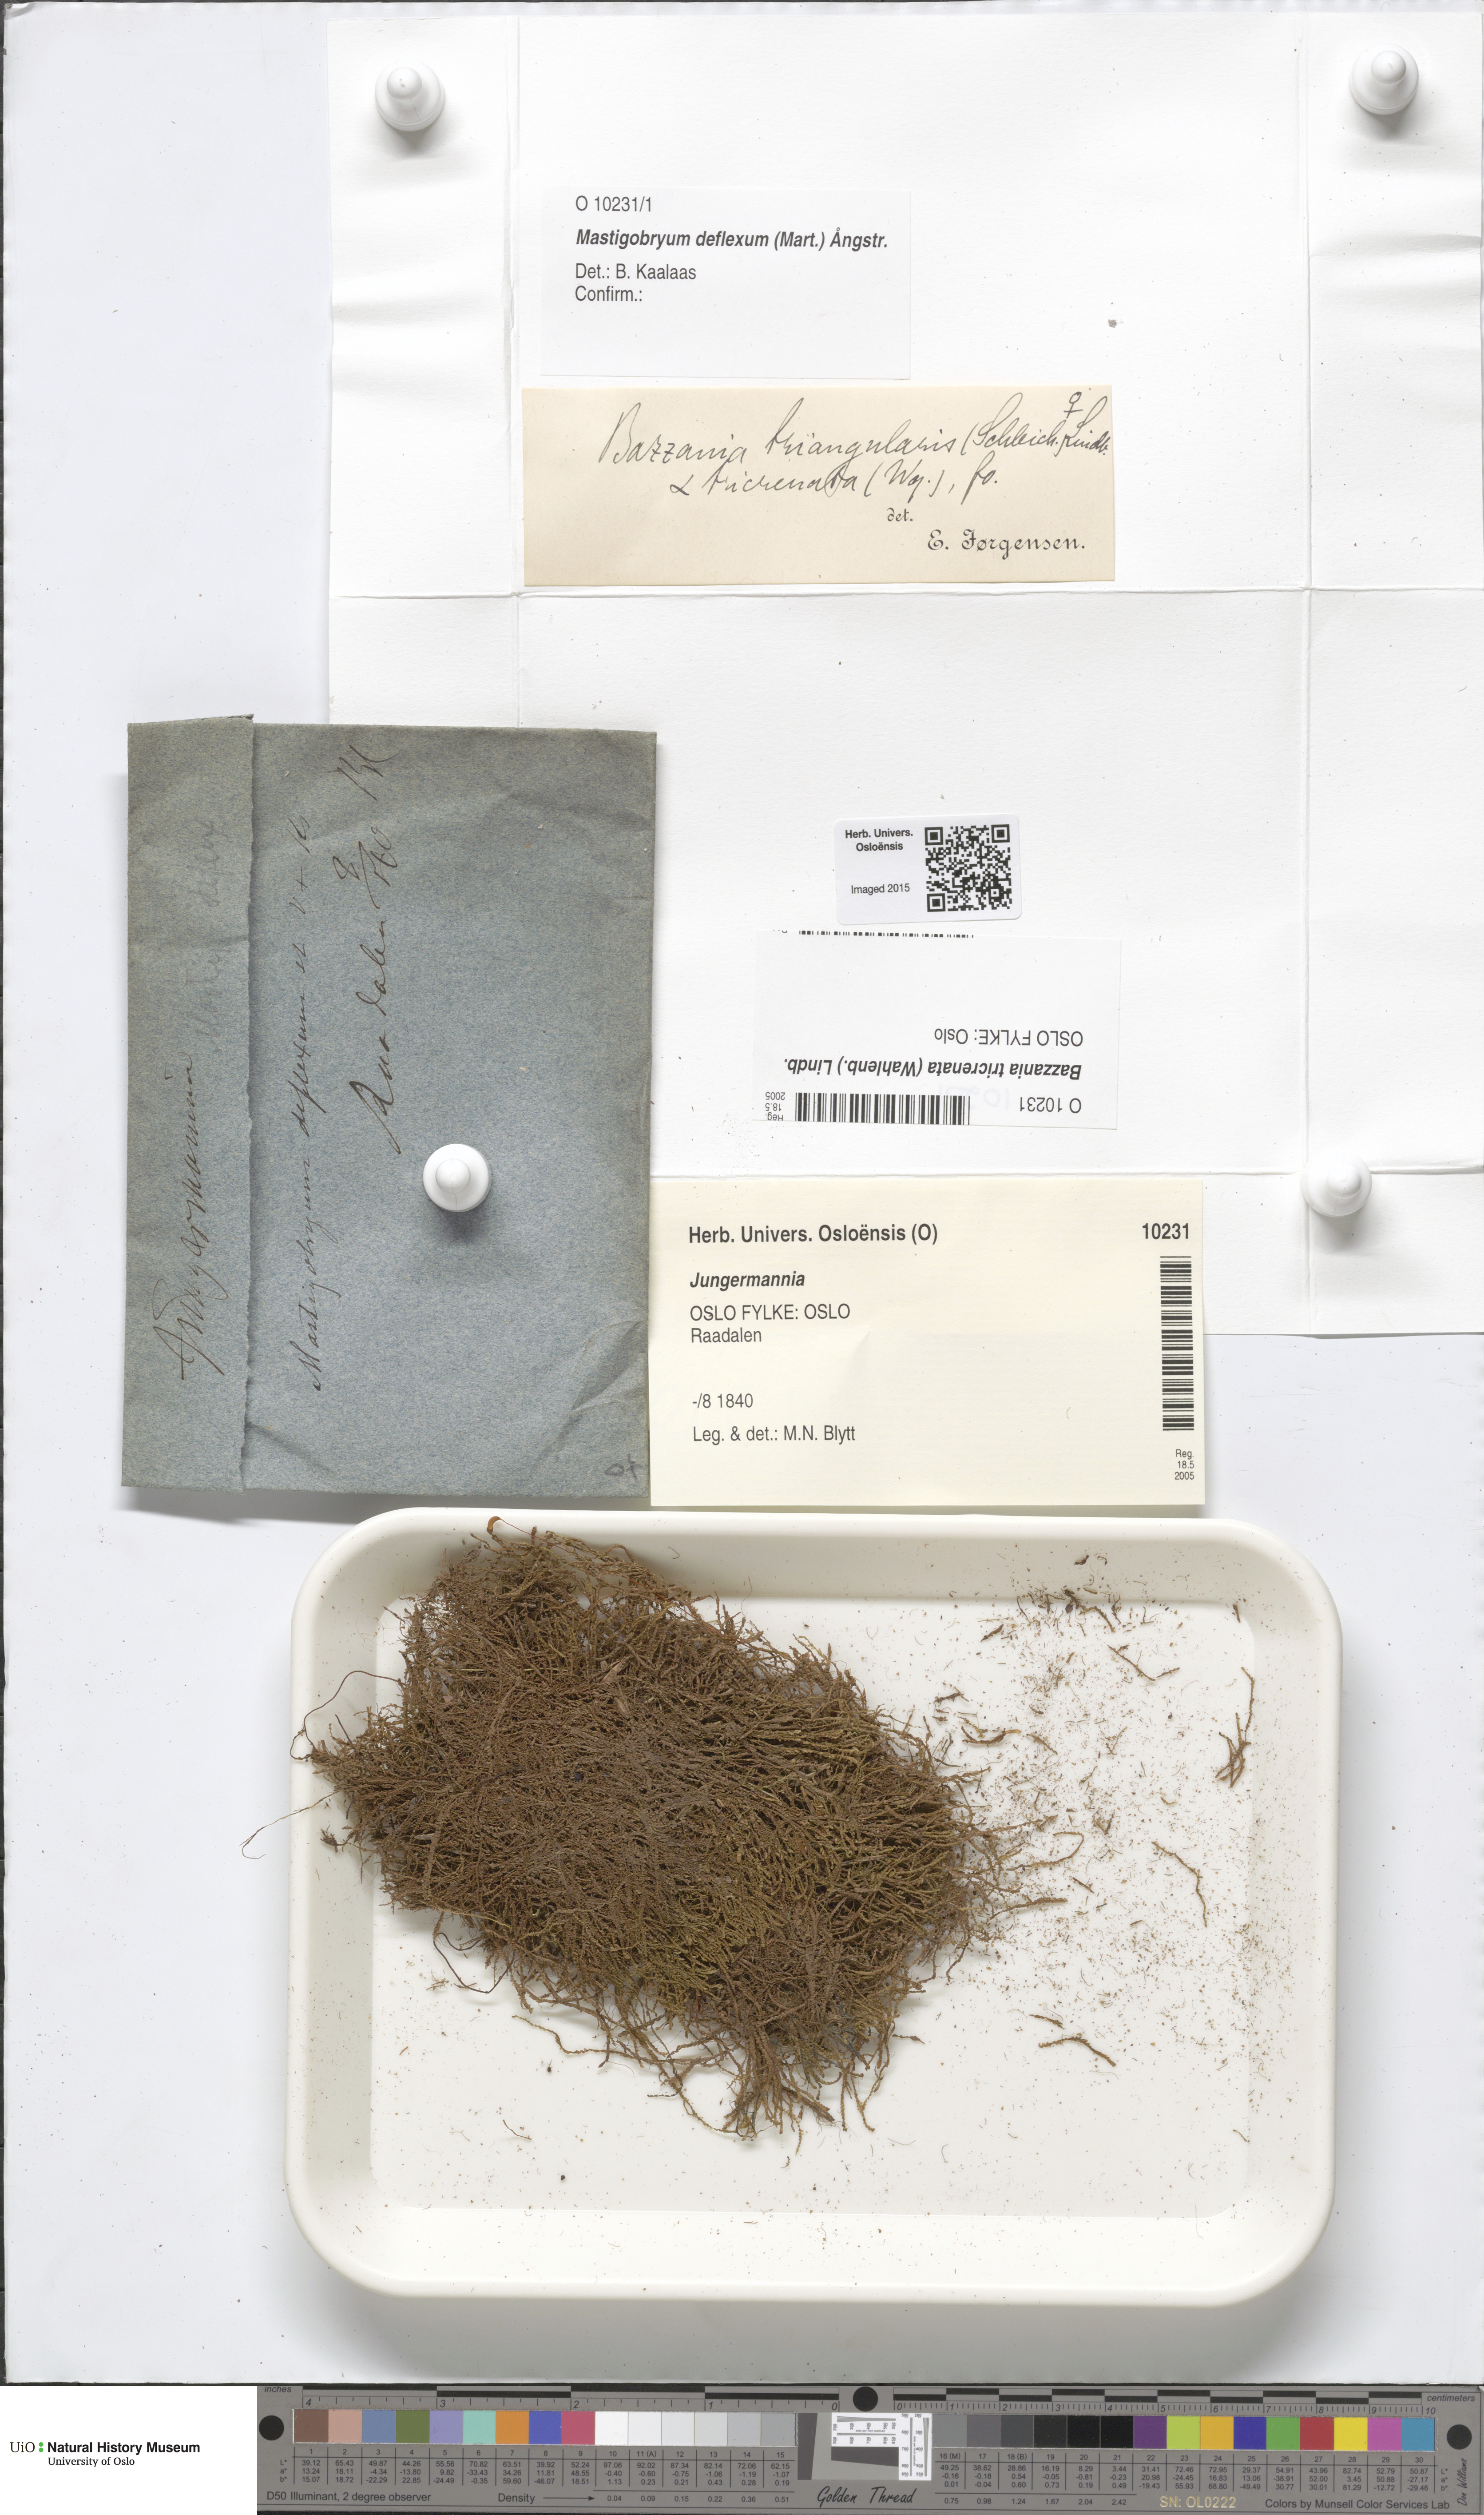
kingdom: Plantae
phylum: Marchantiophyta
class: Jungermanniopsida
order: Jungermanniales
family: Lepidoziaceae
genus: Bazzania
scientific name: Bazzania tricrenata
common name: Lesser whipwort
